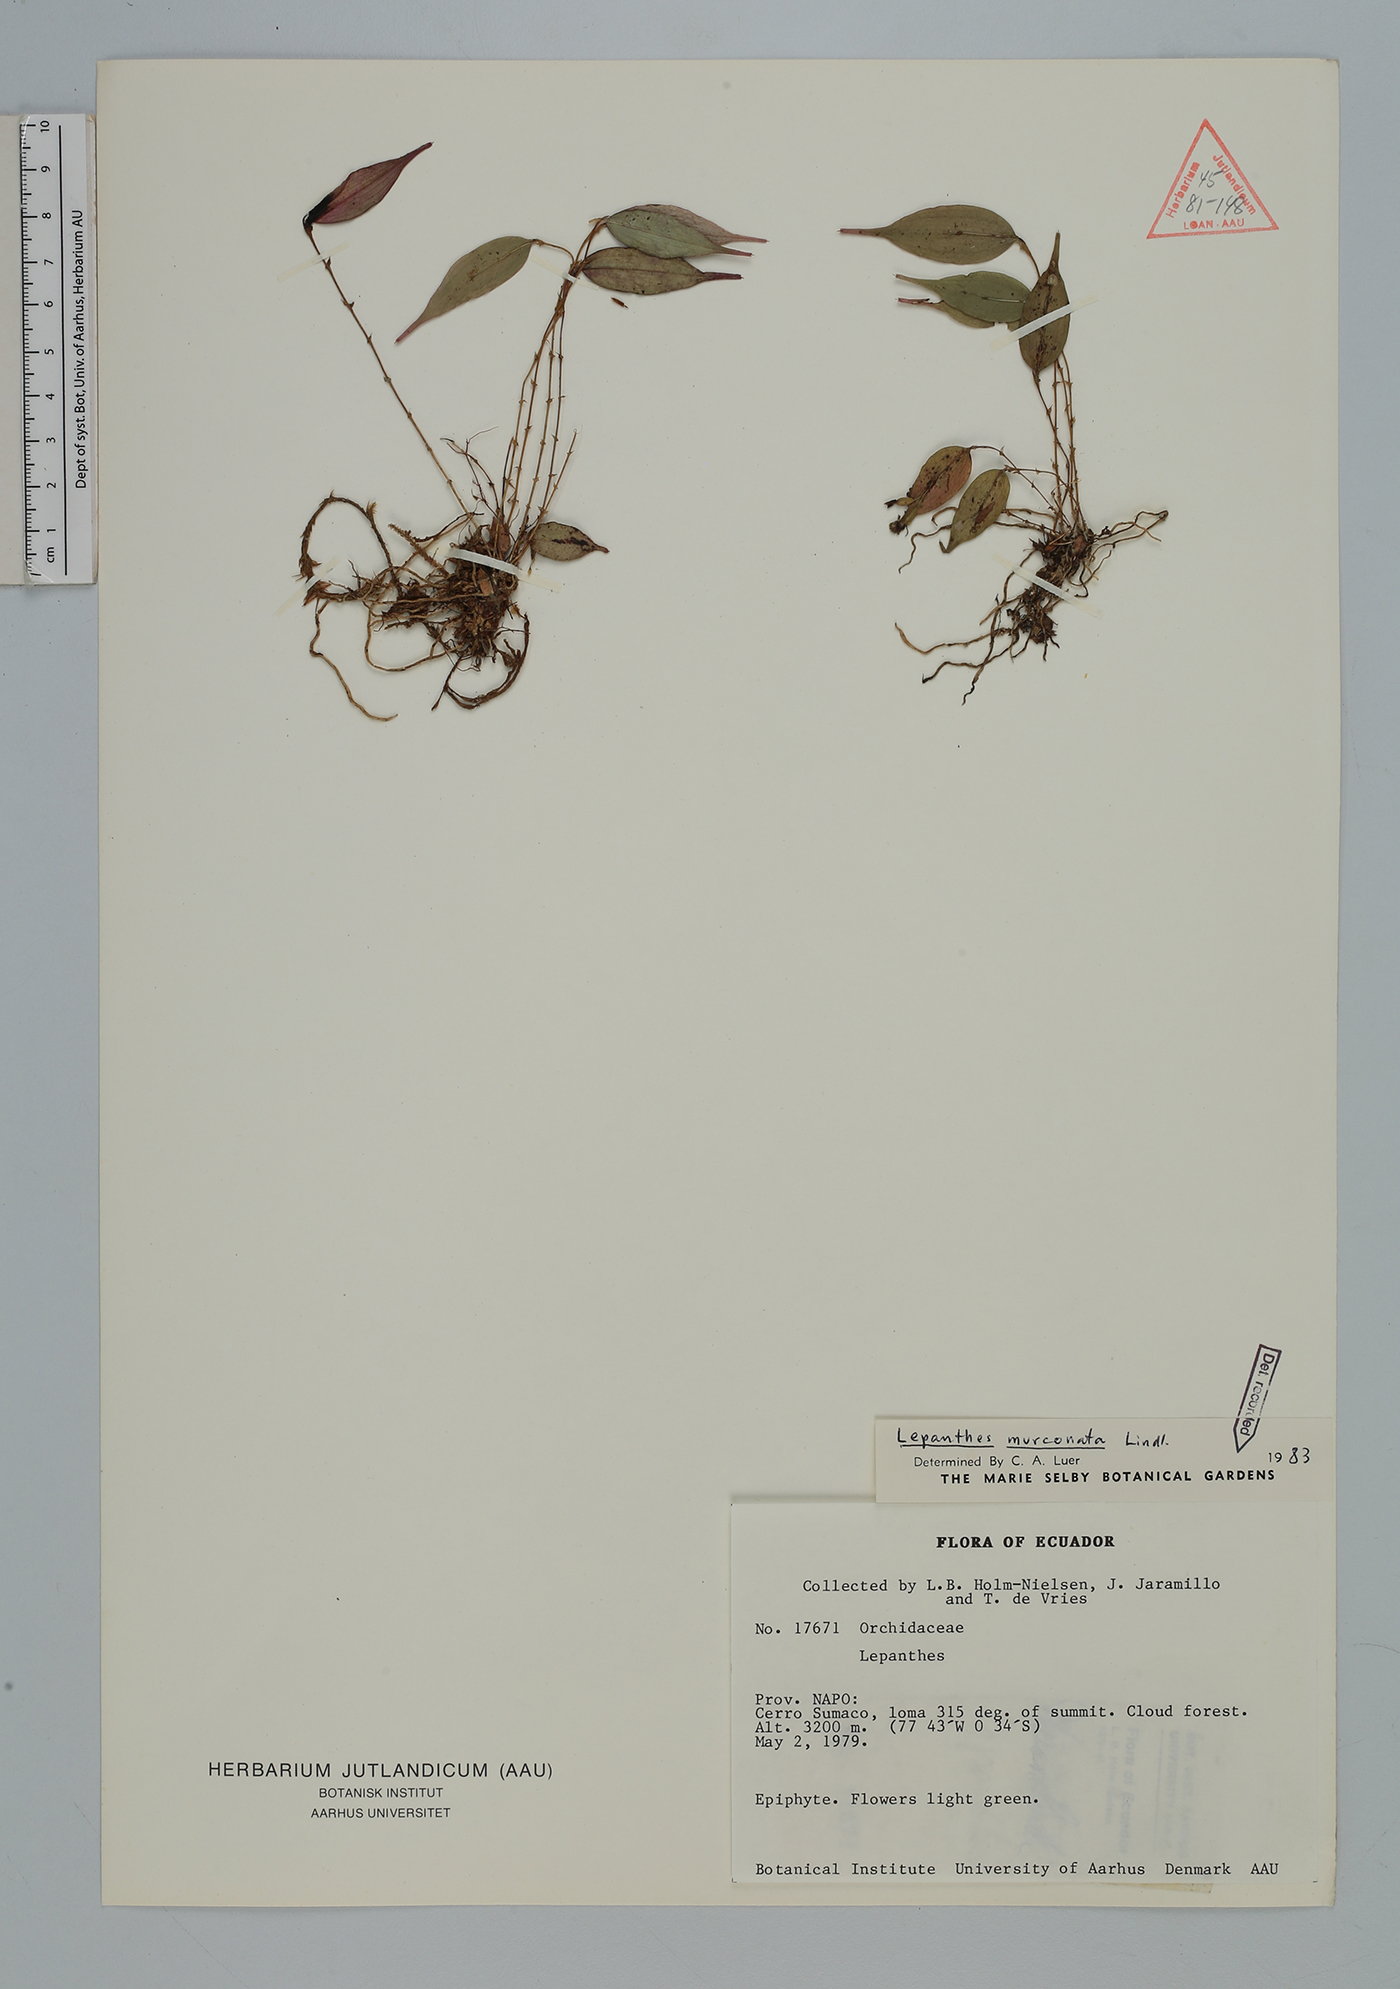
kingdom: Plantae
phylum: Tracheophyta
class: Liliopsida
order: Asparagales
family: Orchidaceae
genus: Lepanthes
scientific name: Lepanthes mucronata
